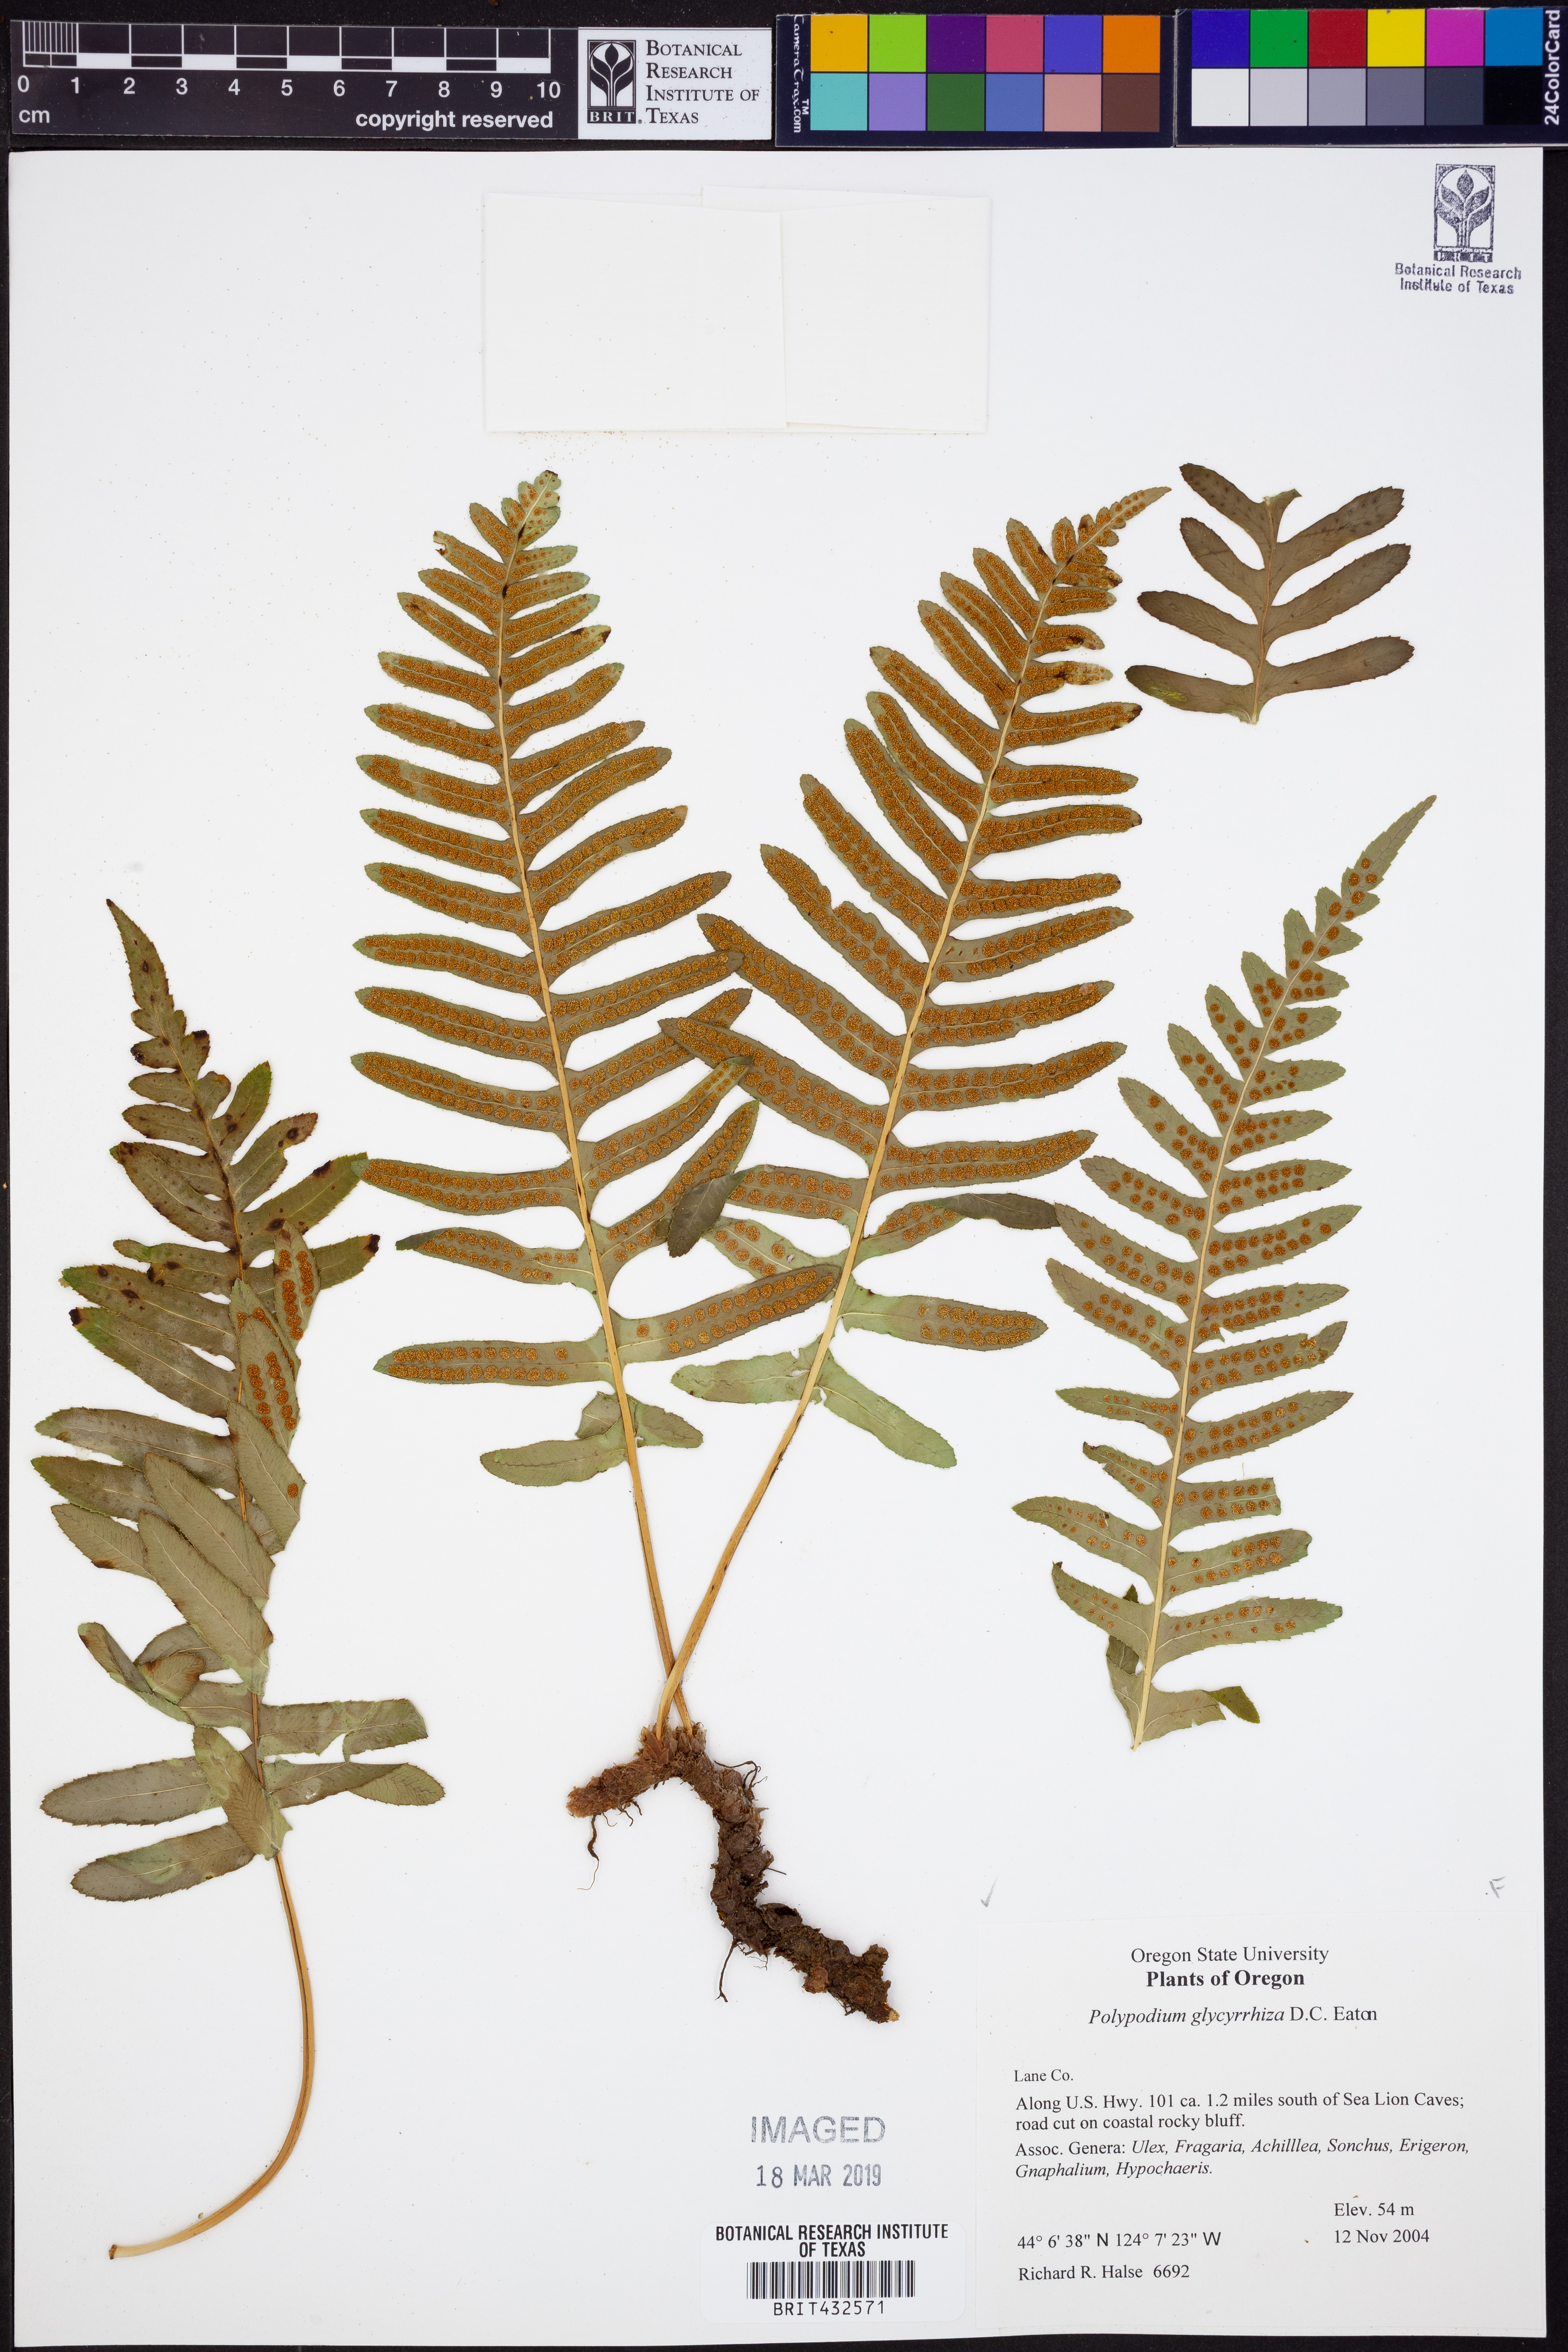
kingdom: Plantae
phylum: Tracheophyta
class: Polypodiopsida
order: Polypodiales
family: Polypodiaceae
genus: Polypodium
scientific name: Polypodium glycyrrhiza
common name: Licorice fern
